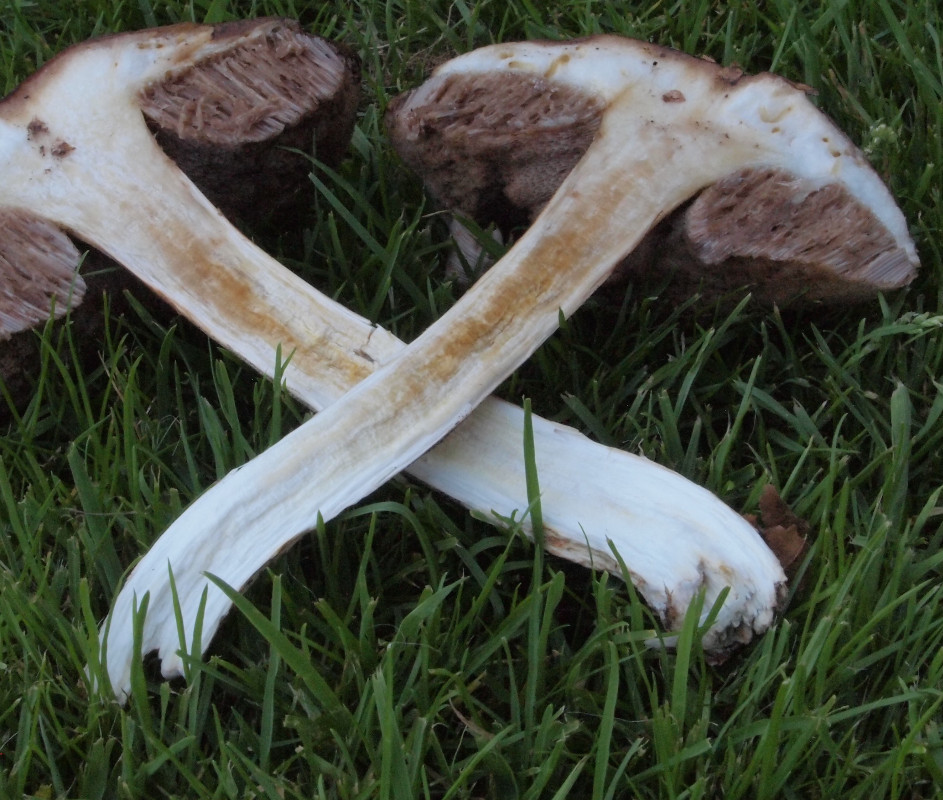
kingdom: Fungi
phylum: Basidiomycota
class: Agaricomycetes
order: Boletales
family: Boletaceae
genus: Leccinum
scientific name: Leccinum
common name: skælrørhat
